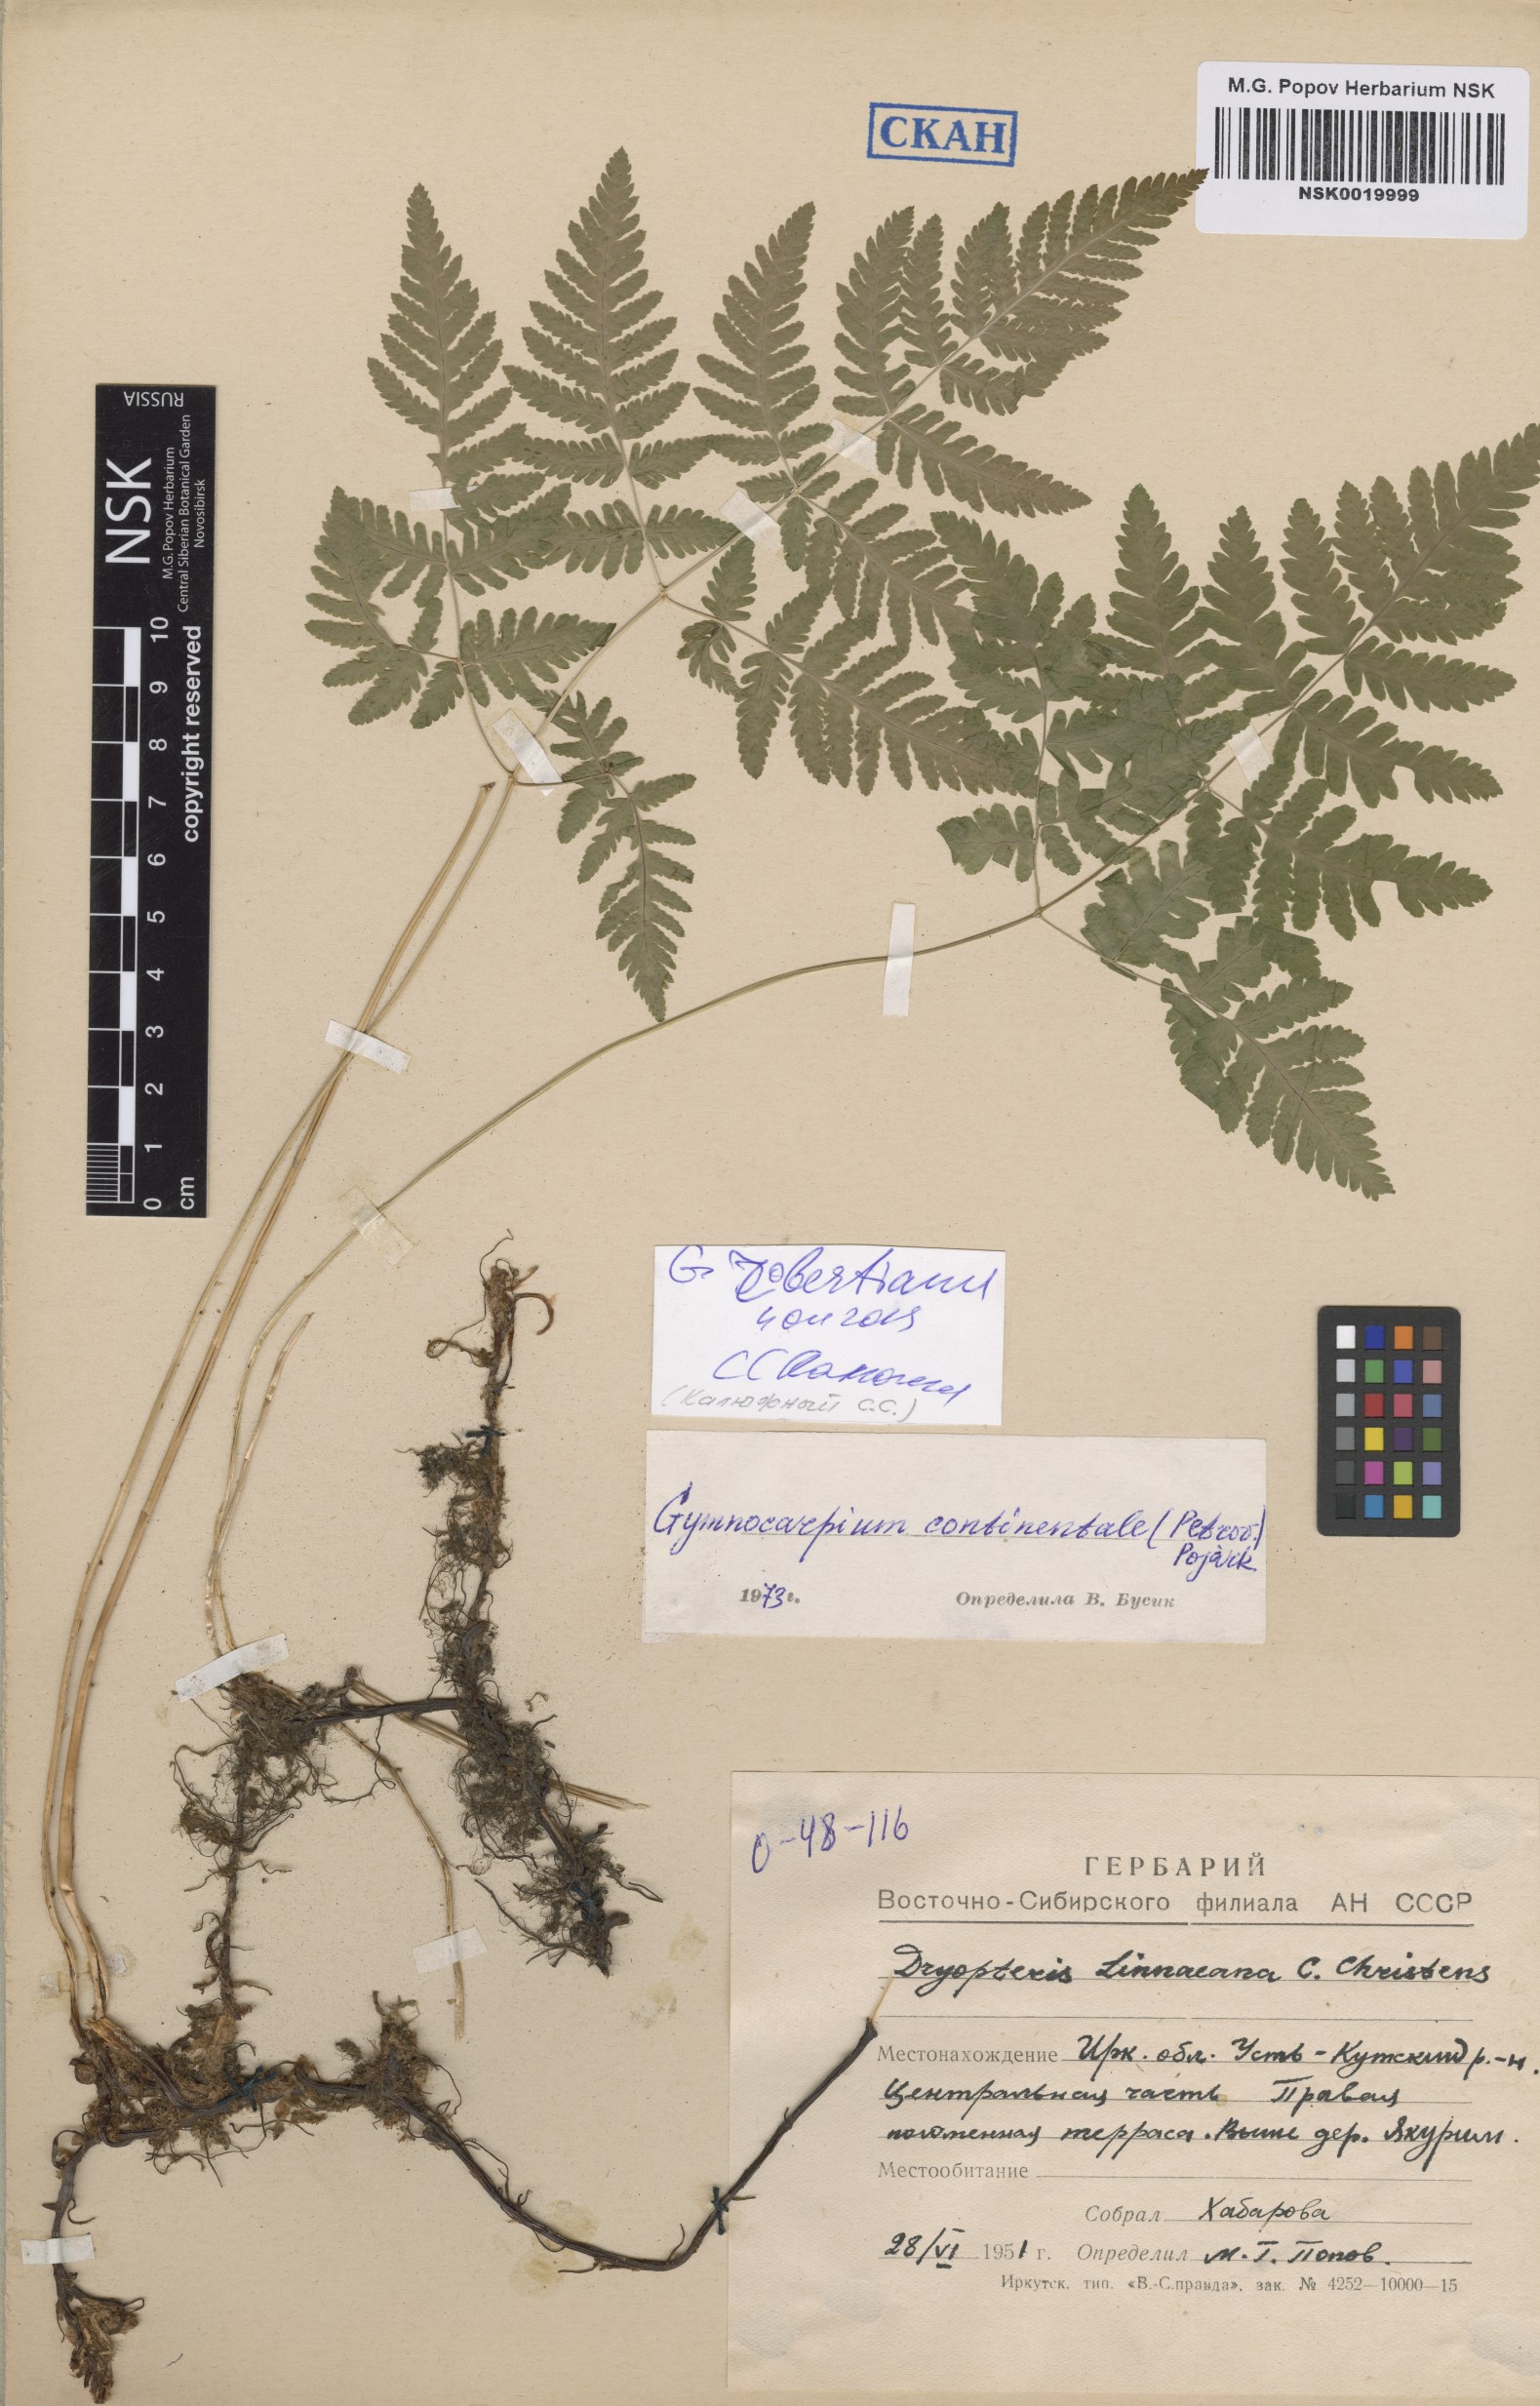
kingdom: Plantae
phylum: Tracheophyta
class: Polypodiopsida
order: Polypodiales
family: Cystopteridaceae
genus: Gymnocarpium
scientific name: Gymnocarpium robertianum
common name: Limestone fern
